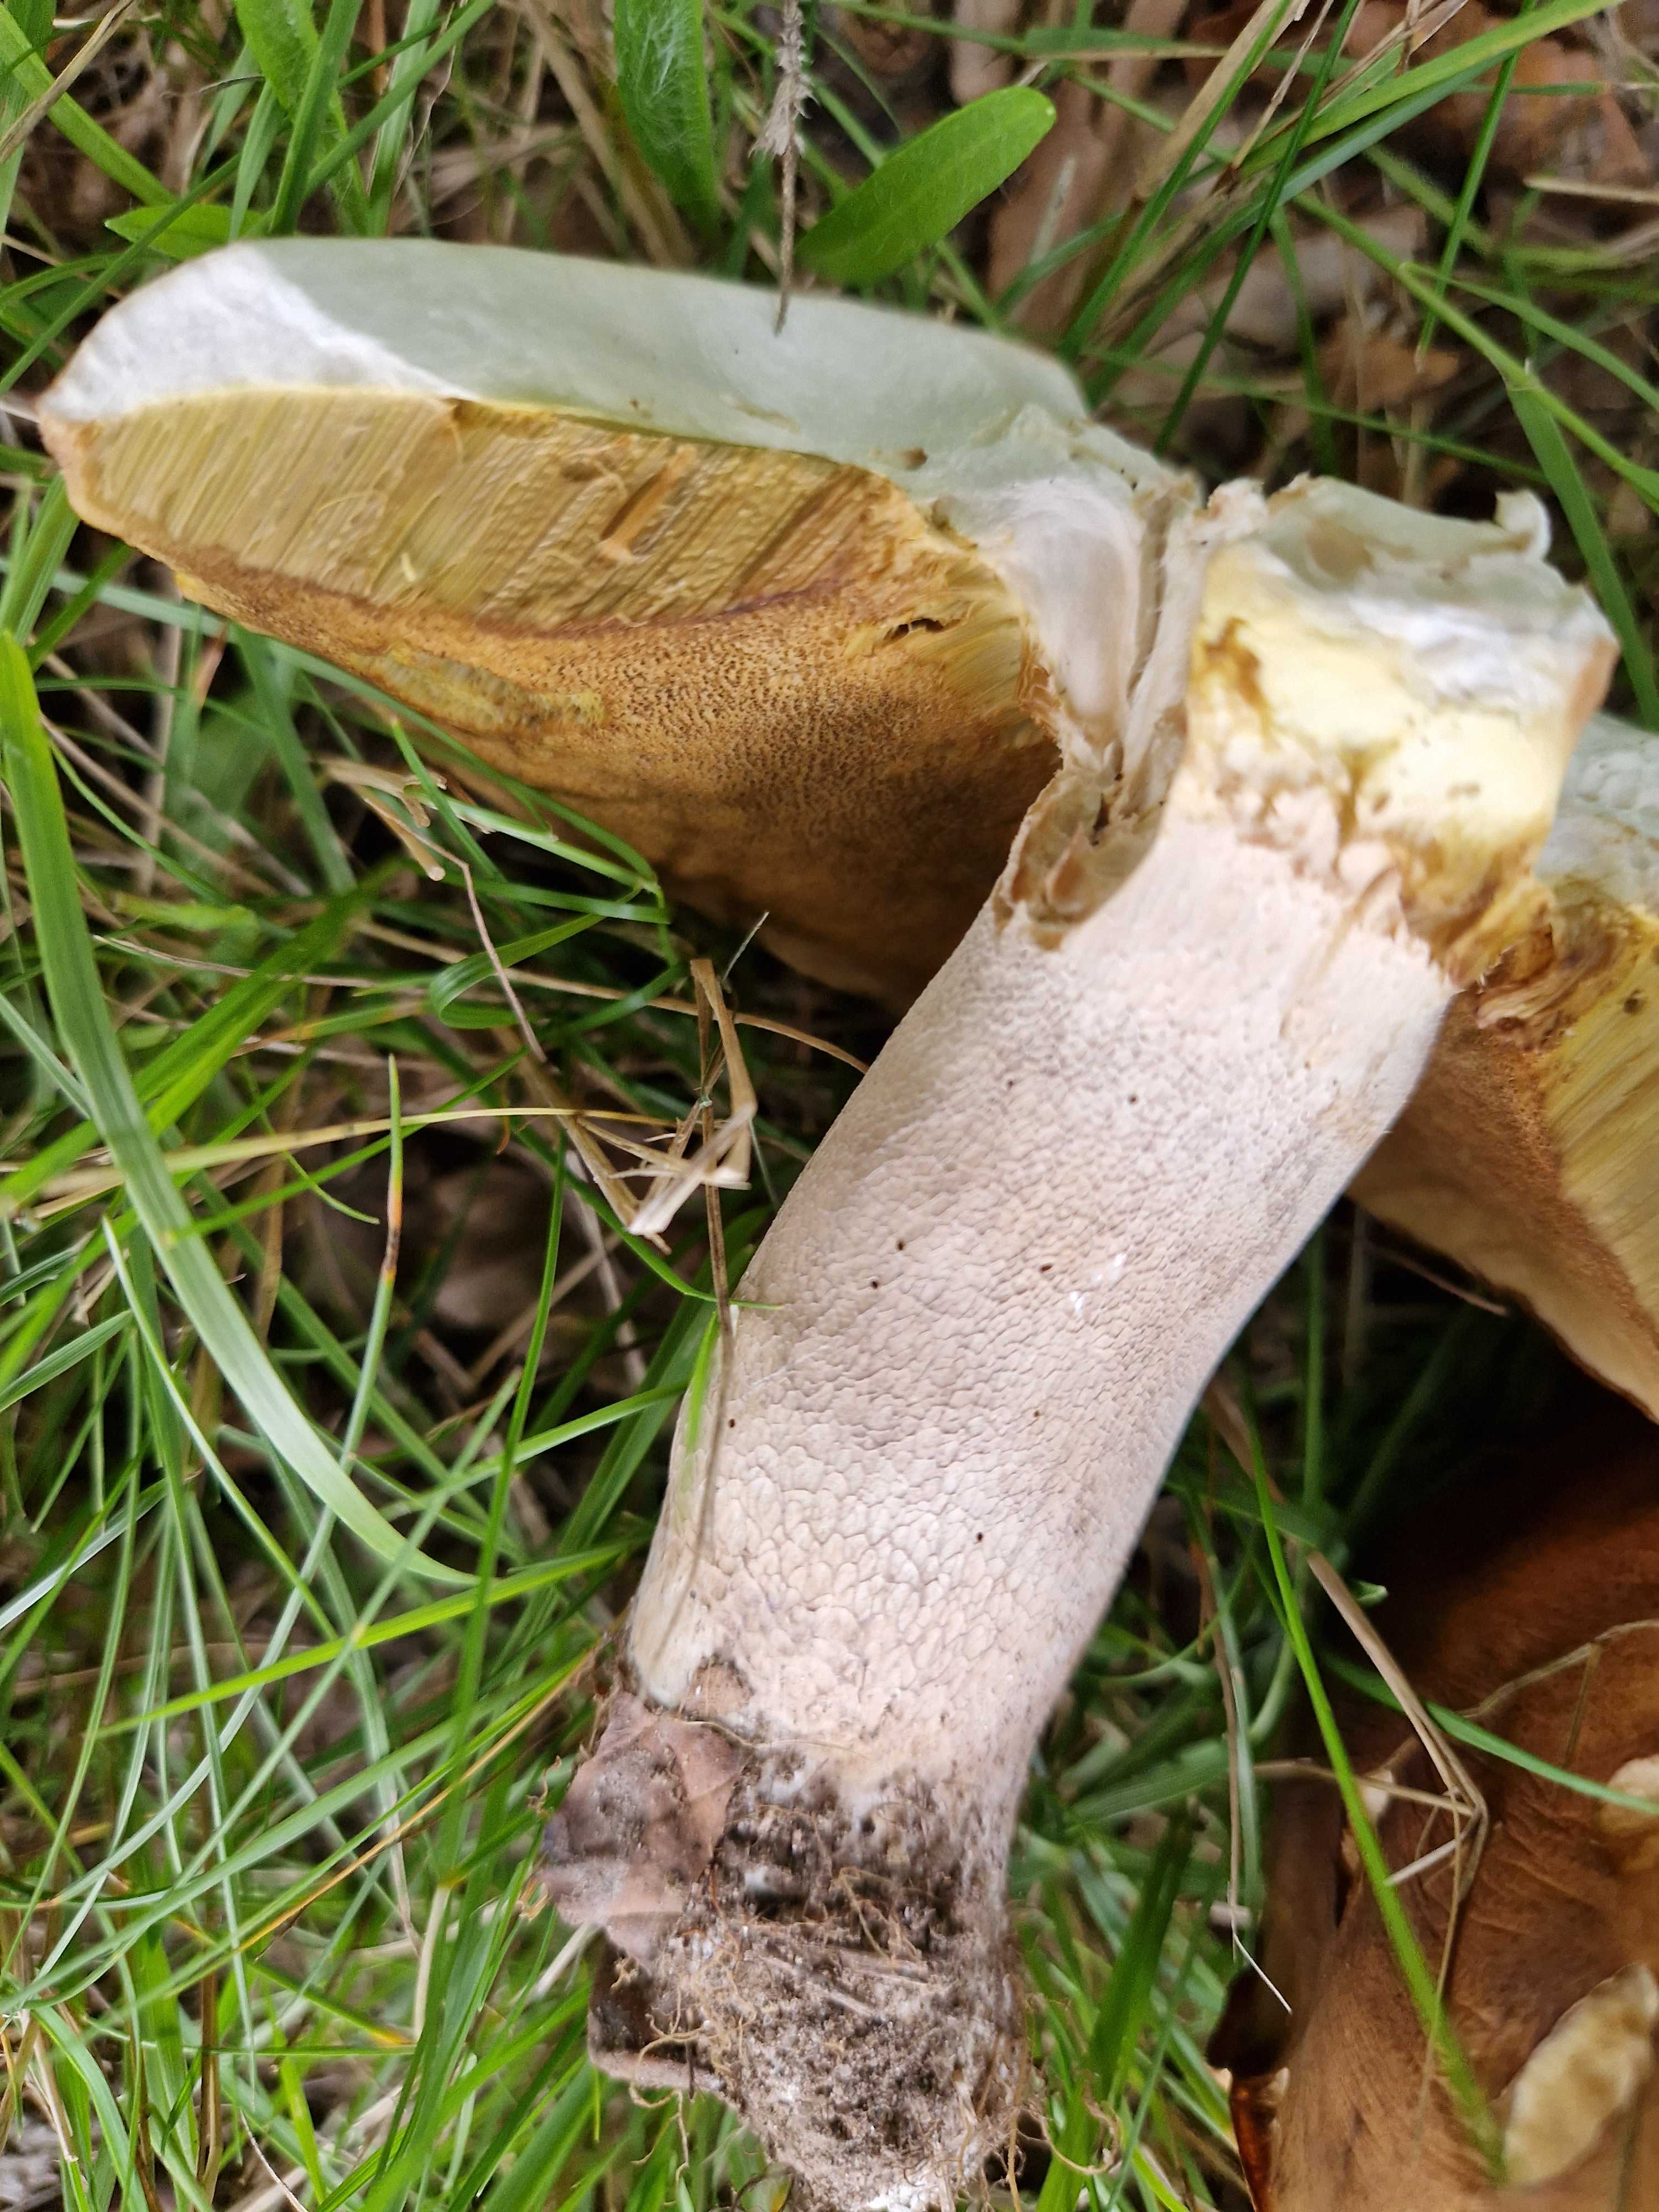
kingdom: Fungi
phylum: Basidiomycota
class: Agaricomycetes
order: Boletales
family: Boletaceae
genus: Boletus
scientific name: Boletus reticulatus
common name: sommer-rørhat
